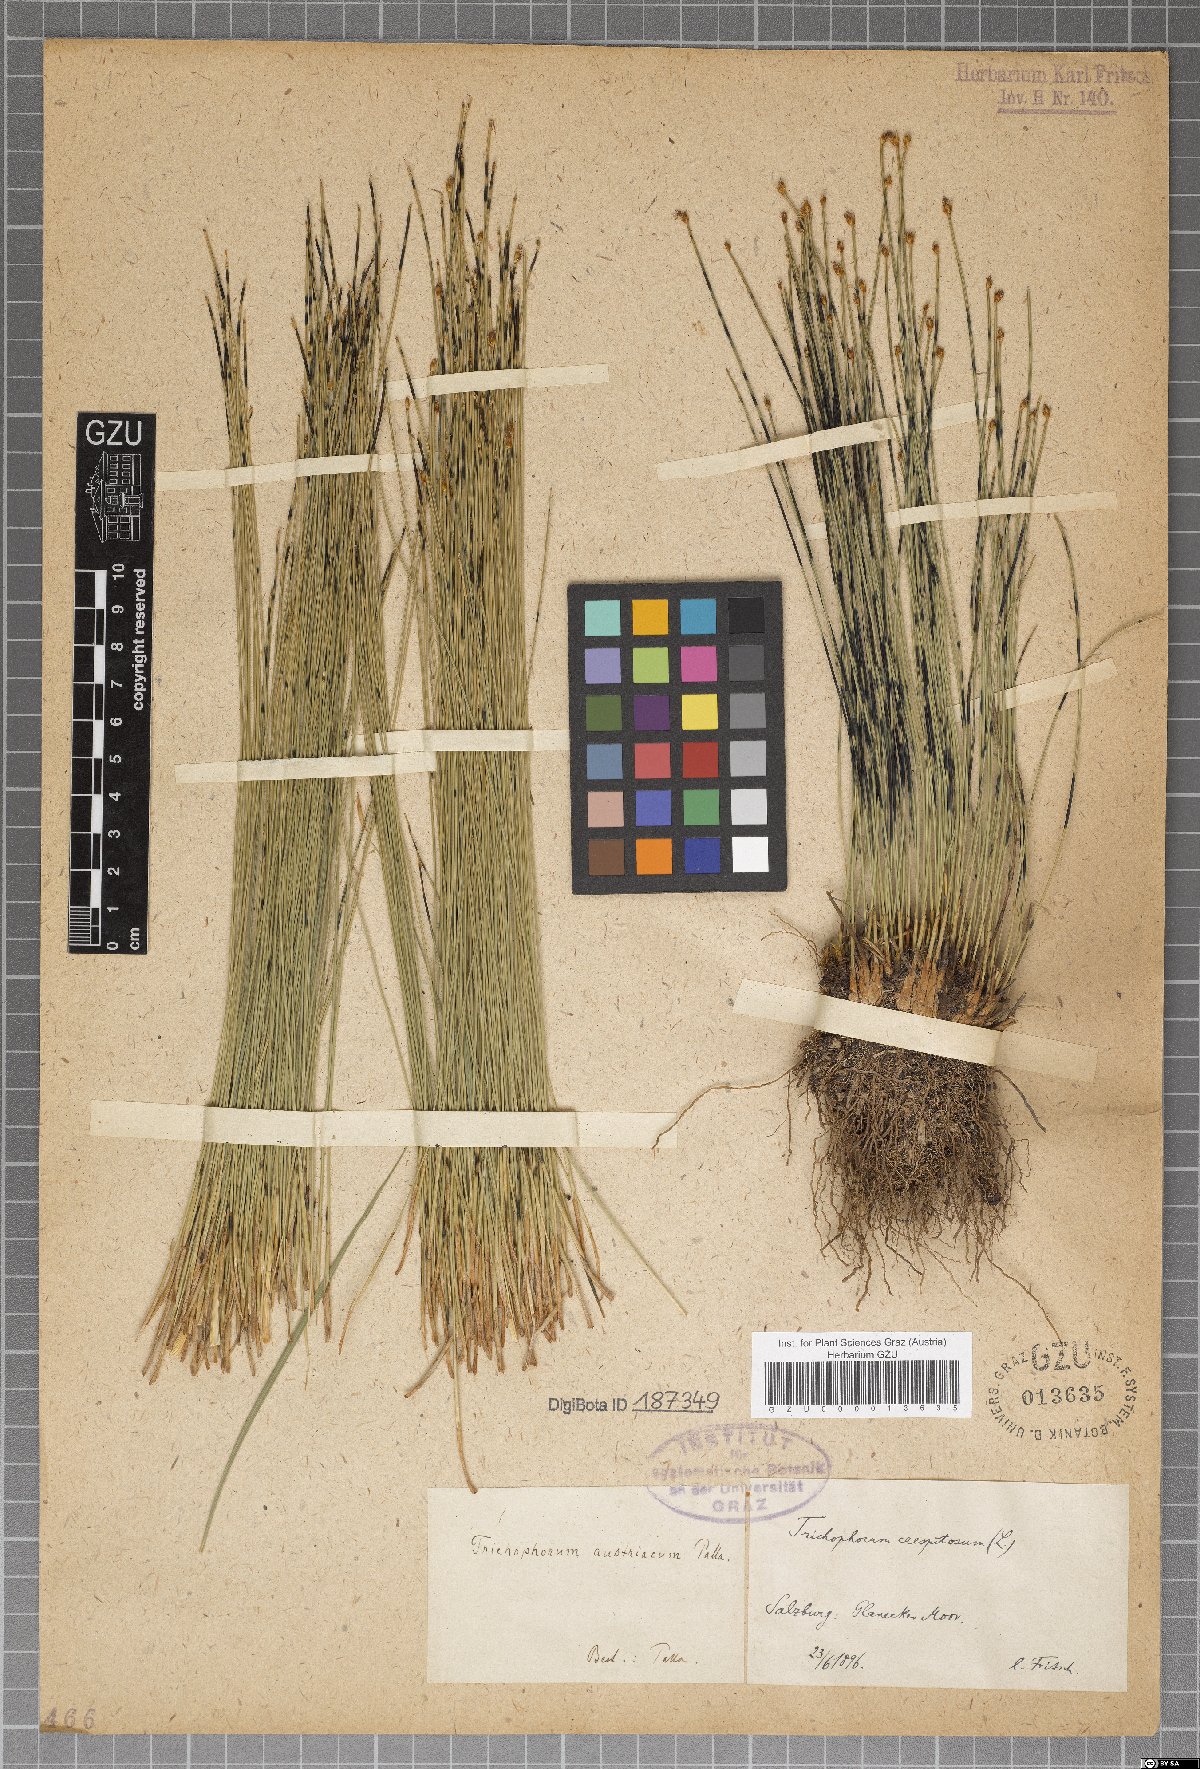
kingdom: Plantae
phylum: Tracheophyta
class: Liliopsida
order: Poales
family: Cyperaceae
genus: Trichophorum
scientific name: Trichophorum cespitosum
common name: Cespitose bulrush
